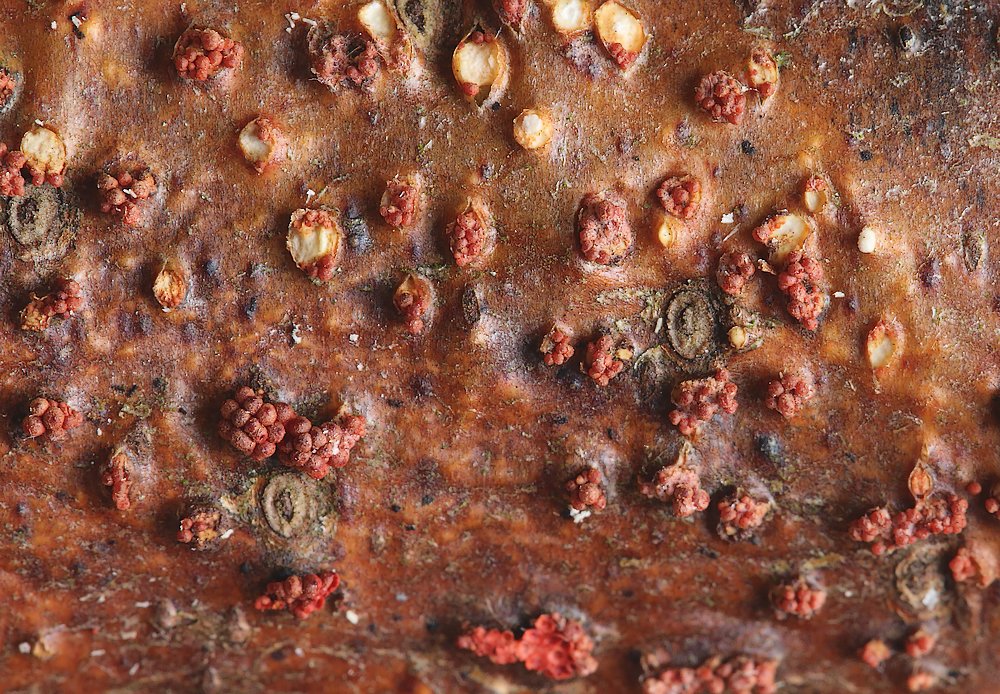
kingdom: Fungi
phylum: Ascomycota
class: Sordariomycetes
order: Hypocreales
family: Nectriaceae
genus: Neonectria
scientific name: Neonectria neomacrospora
